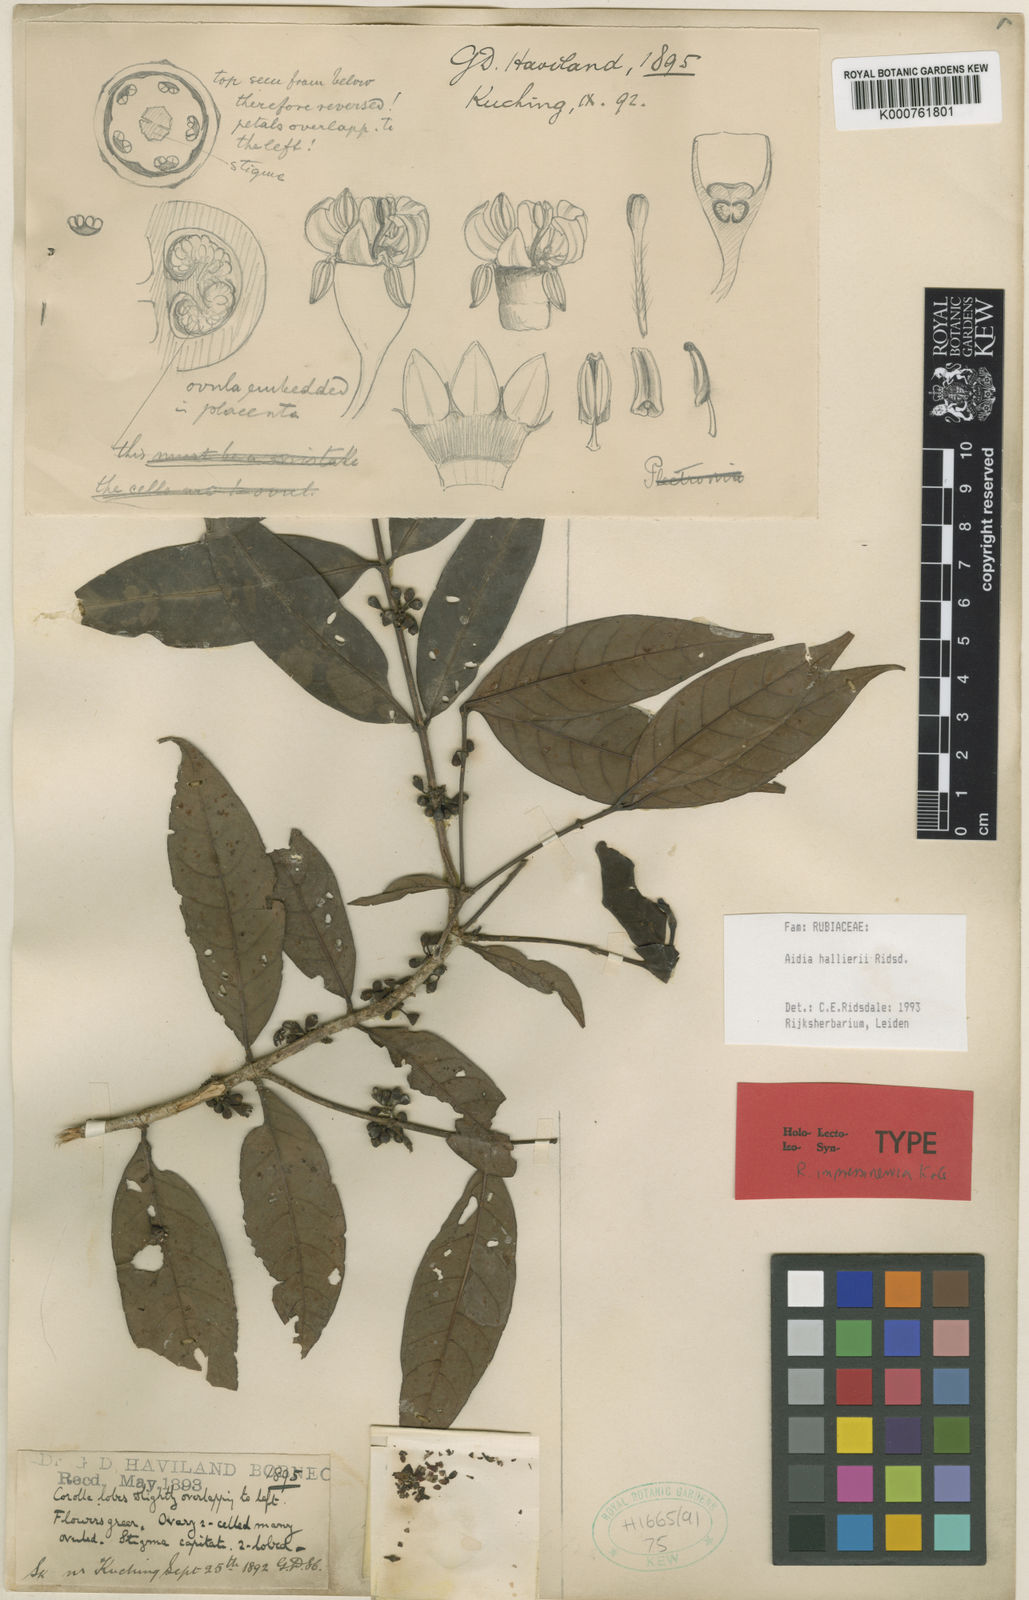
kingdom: Plantae
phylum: Tracheophyta
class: Magnoliopsida
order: Gentianales
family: Rubiaceae
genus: Aidia
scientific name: Aidia halleri
